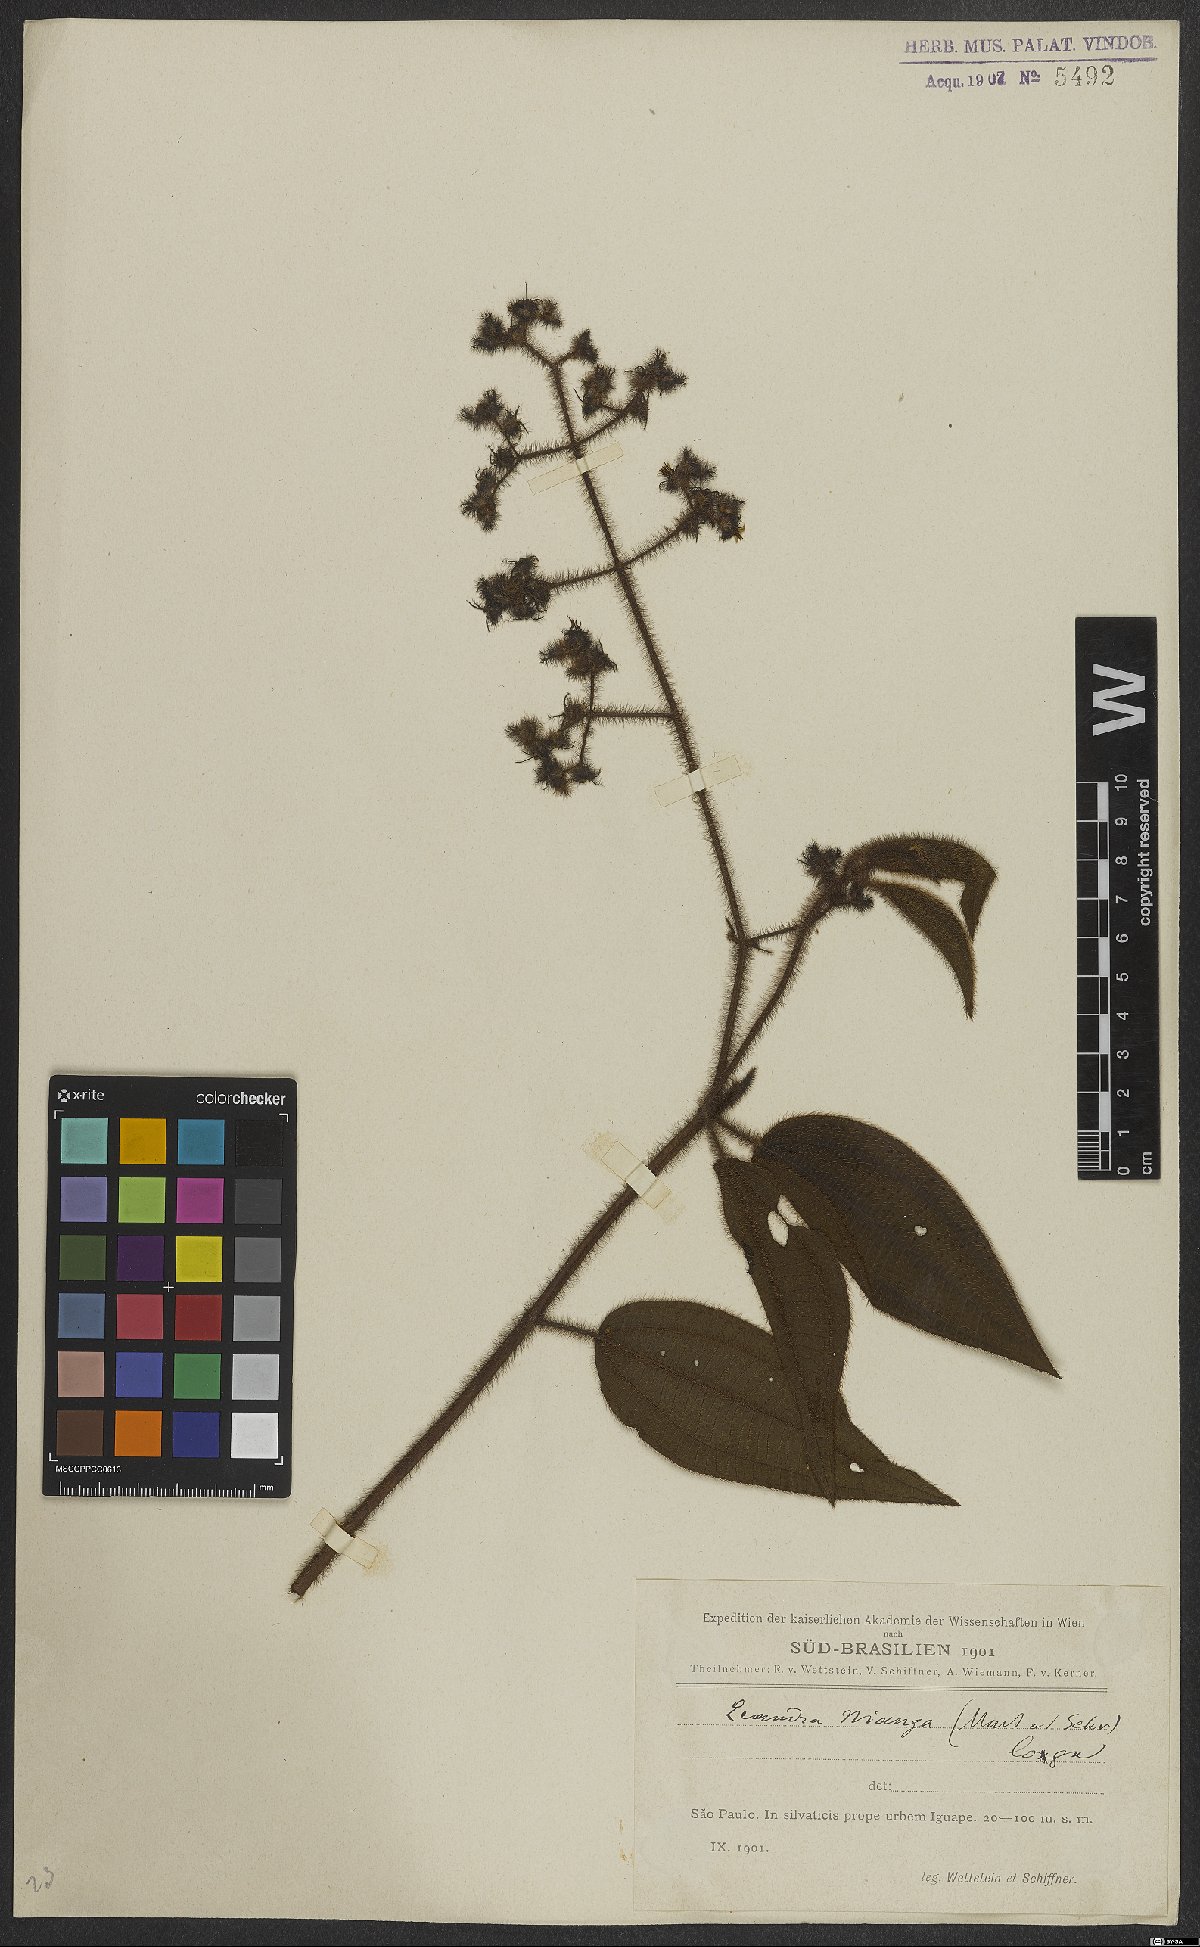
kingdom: Plantae
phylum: Tracheophyta
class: Magnoliopsida
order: Myrtales
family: Melastomataceae
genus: Miconia
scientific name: Miconia nianga
